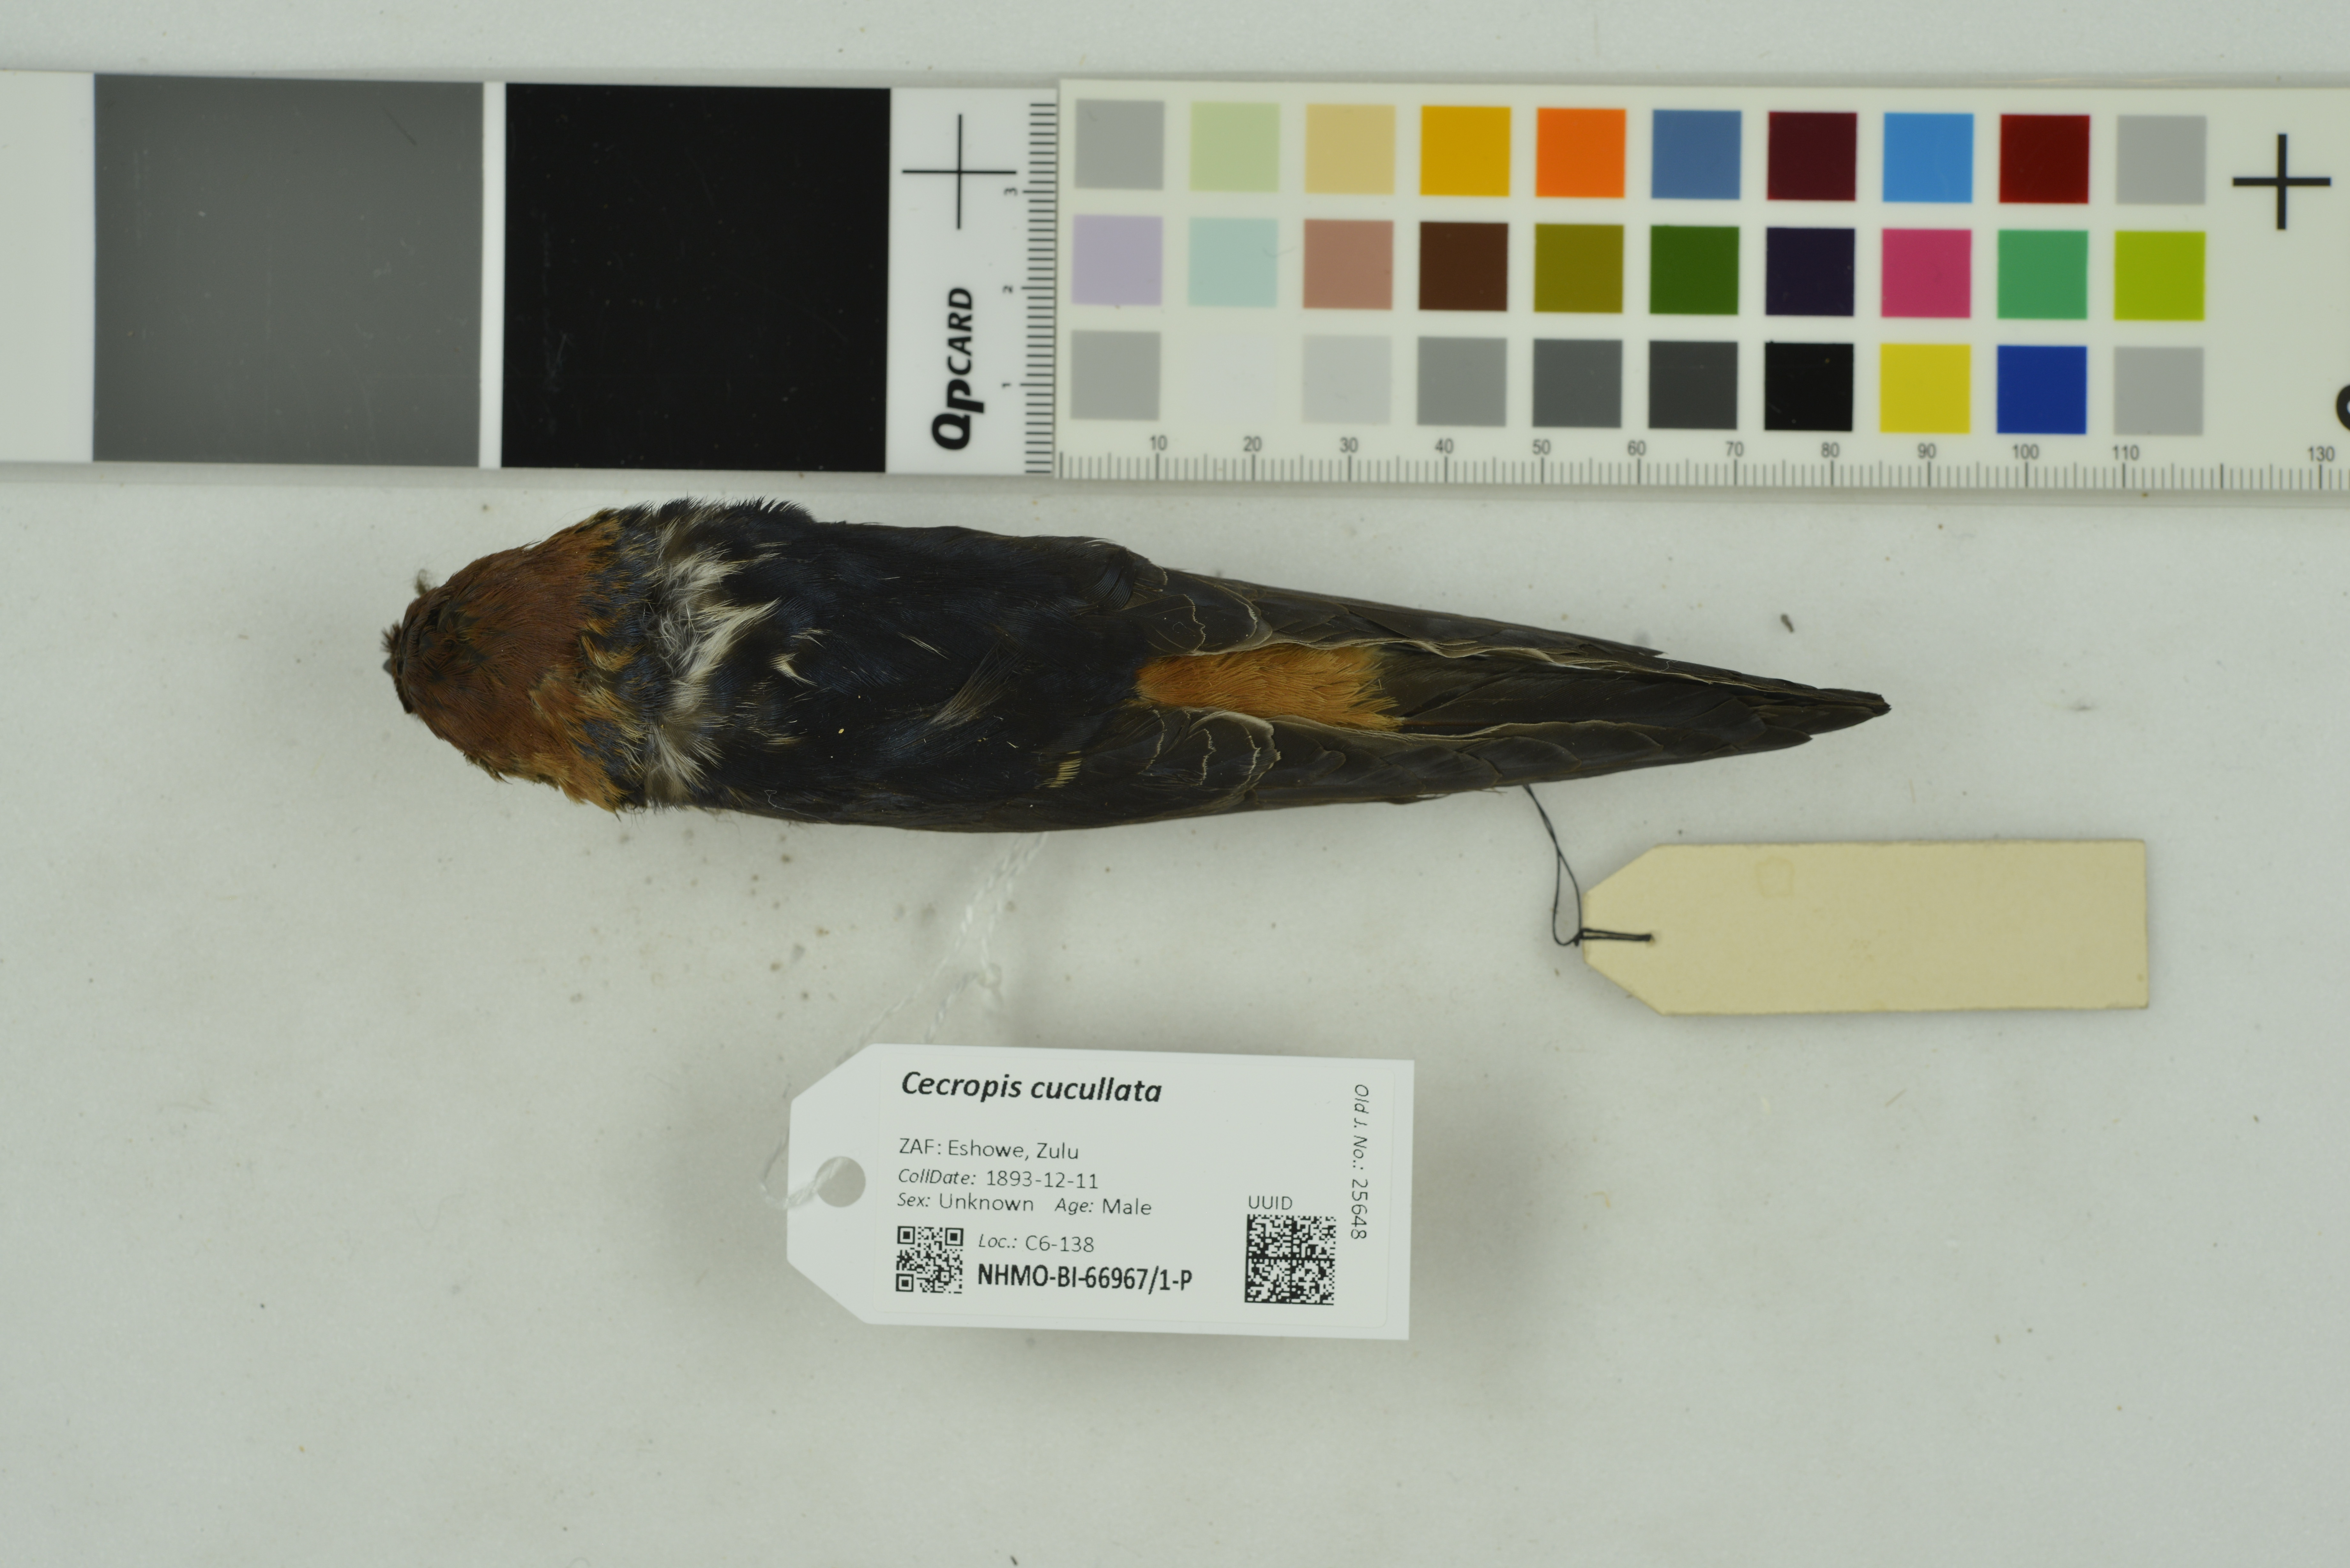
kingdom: Animalia
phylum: Chordata
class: Aves
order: Passeriformes
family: Hirundinidae
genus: Cecropis
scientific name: Cecropis cucullata
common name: Greater striped-swallow
